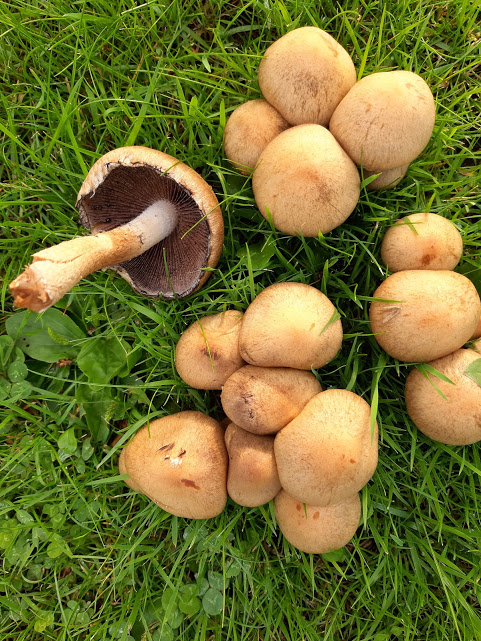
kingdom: Fungi
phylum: Basidiomycota
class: Agaricomycetes
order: Agaricales
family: Psathyrellaceae
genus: Lacrymaria
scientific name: Lacrymaria lacrymabunda
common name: grædende mørkhat
